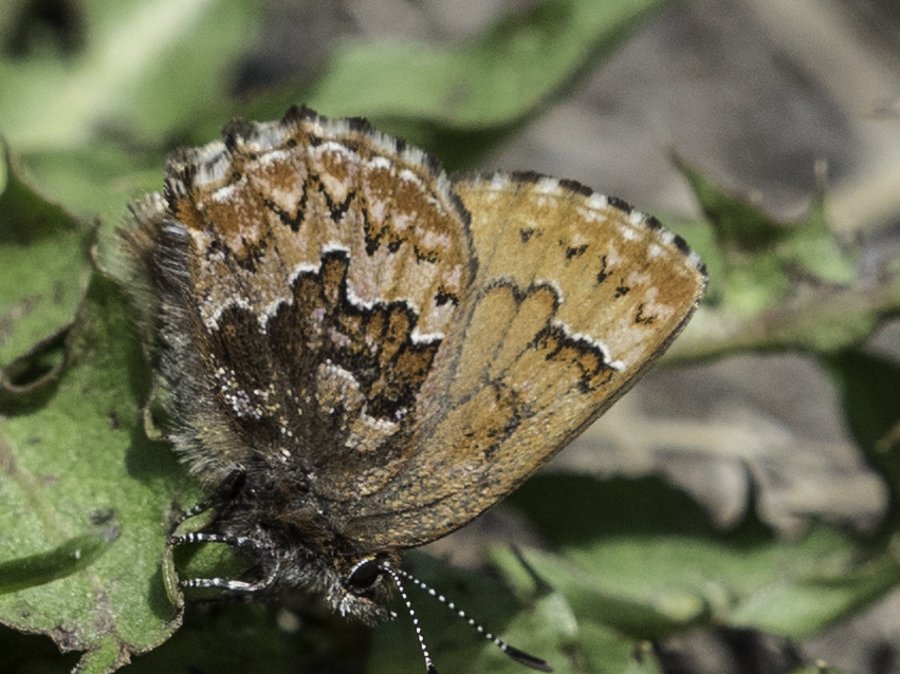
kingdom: Animalia
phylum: Arthropoda
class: Insecta
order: Lepidoptera
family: Lycaenidae
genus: Incisalia
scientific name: Incisalia eryphon
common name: Western Pine Elfin
